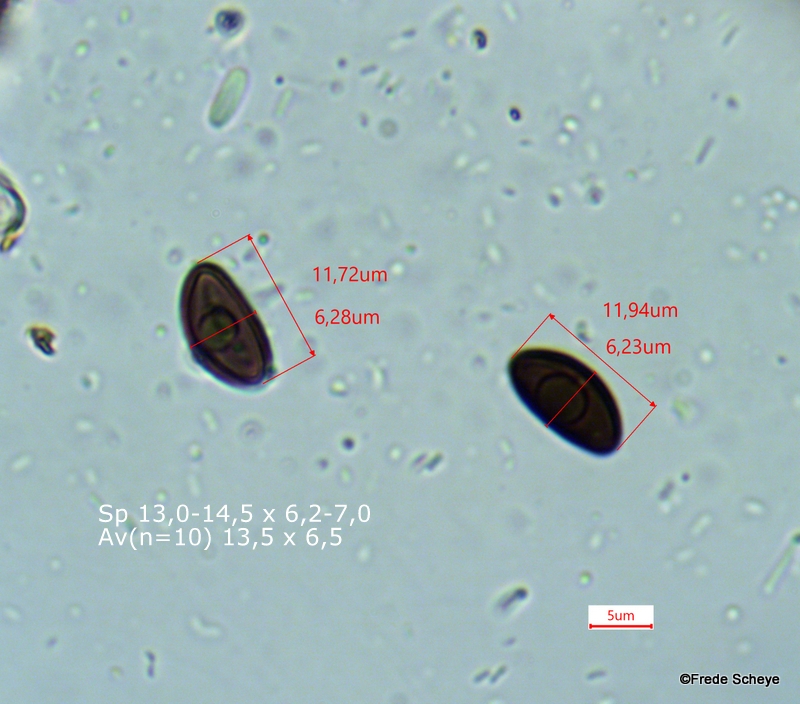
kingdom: Fungi
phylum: Ascomycota
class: Sordariomycetes
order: Xylariales
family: Hypoxylaceae
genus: Hypoxylon
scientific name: Hypoxylon fragiforme
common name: kuljordbær
